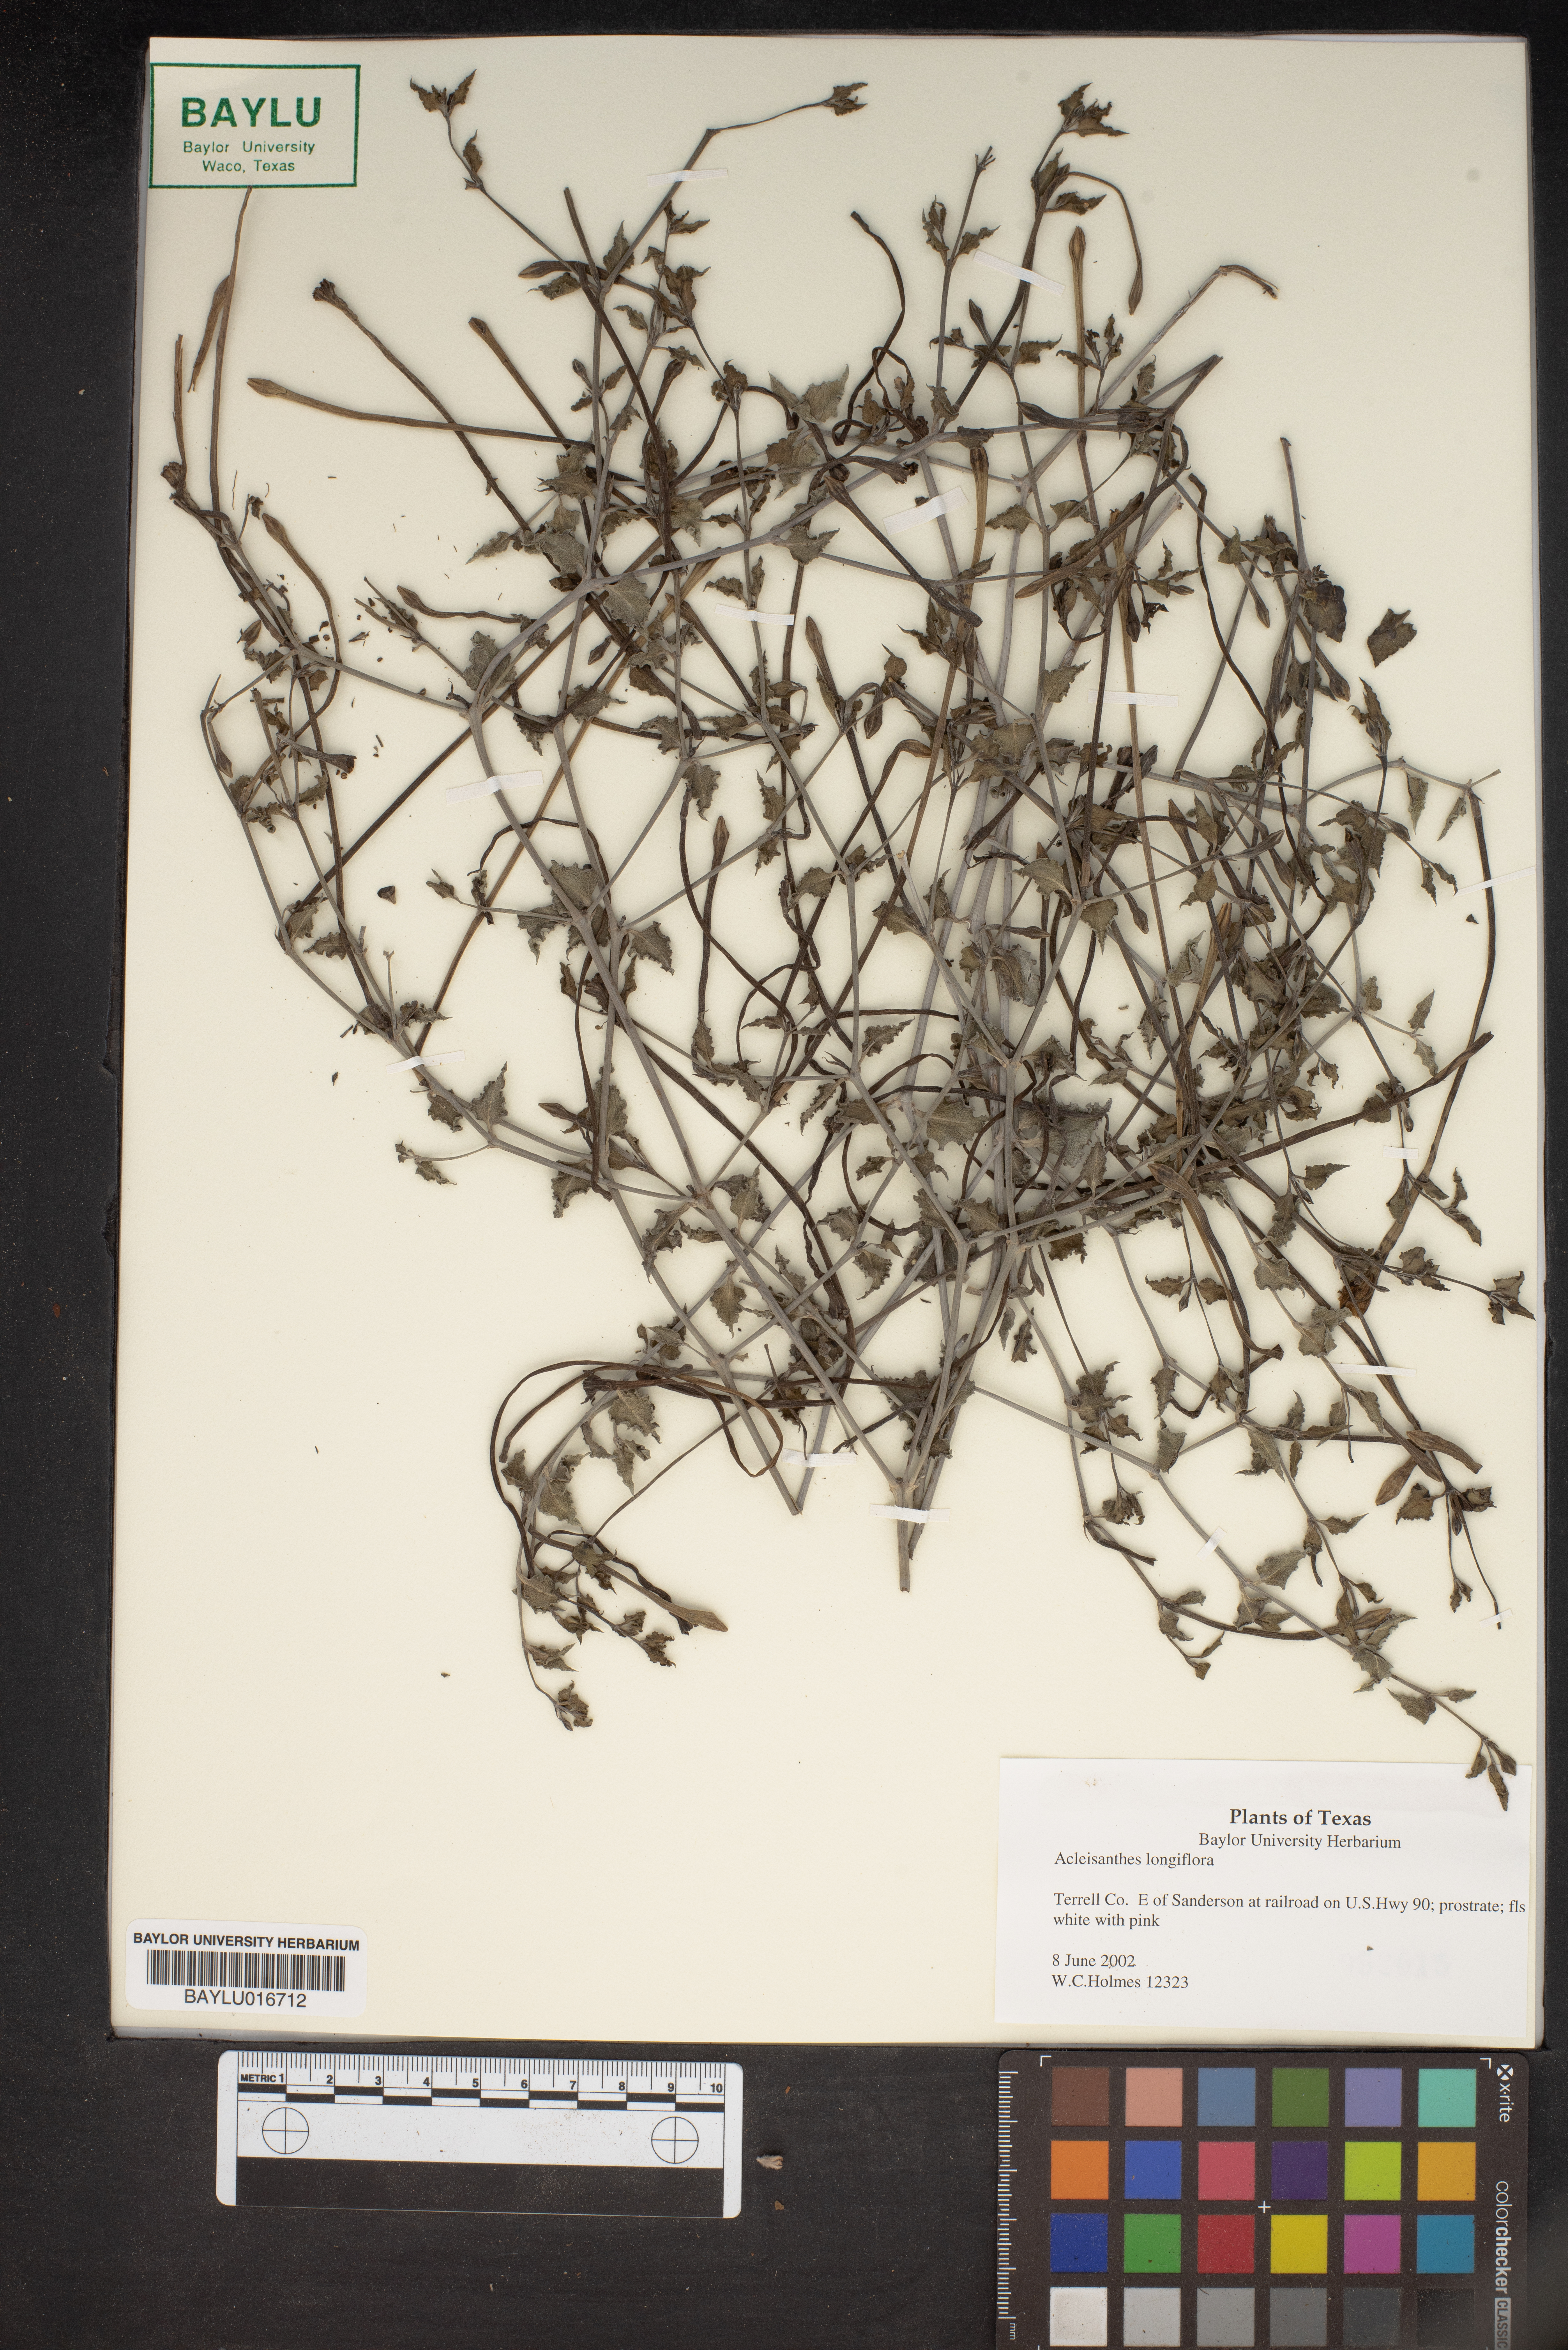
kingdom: Plantae
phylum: Tracheophyta
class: Magnoliopsida
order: Caryophyllales
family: Nyctaginaceae
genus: Acleisanthes
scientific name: Acleisanthes longiflora
